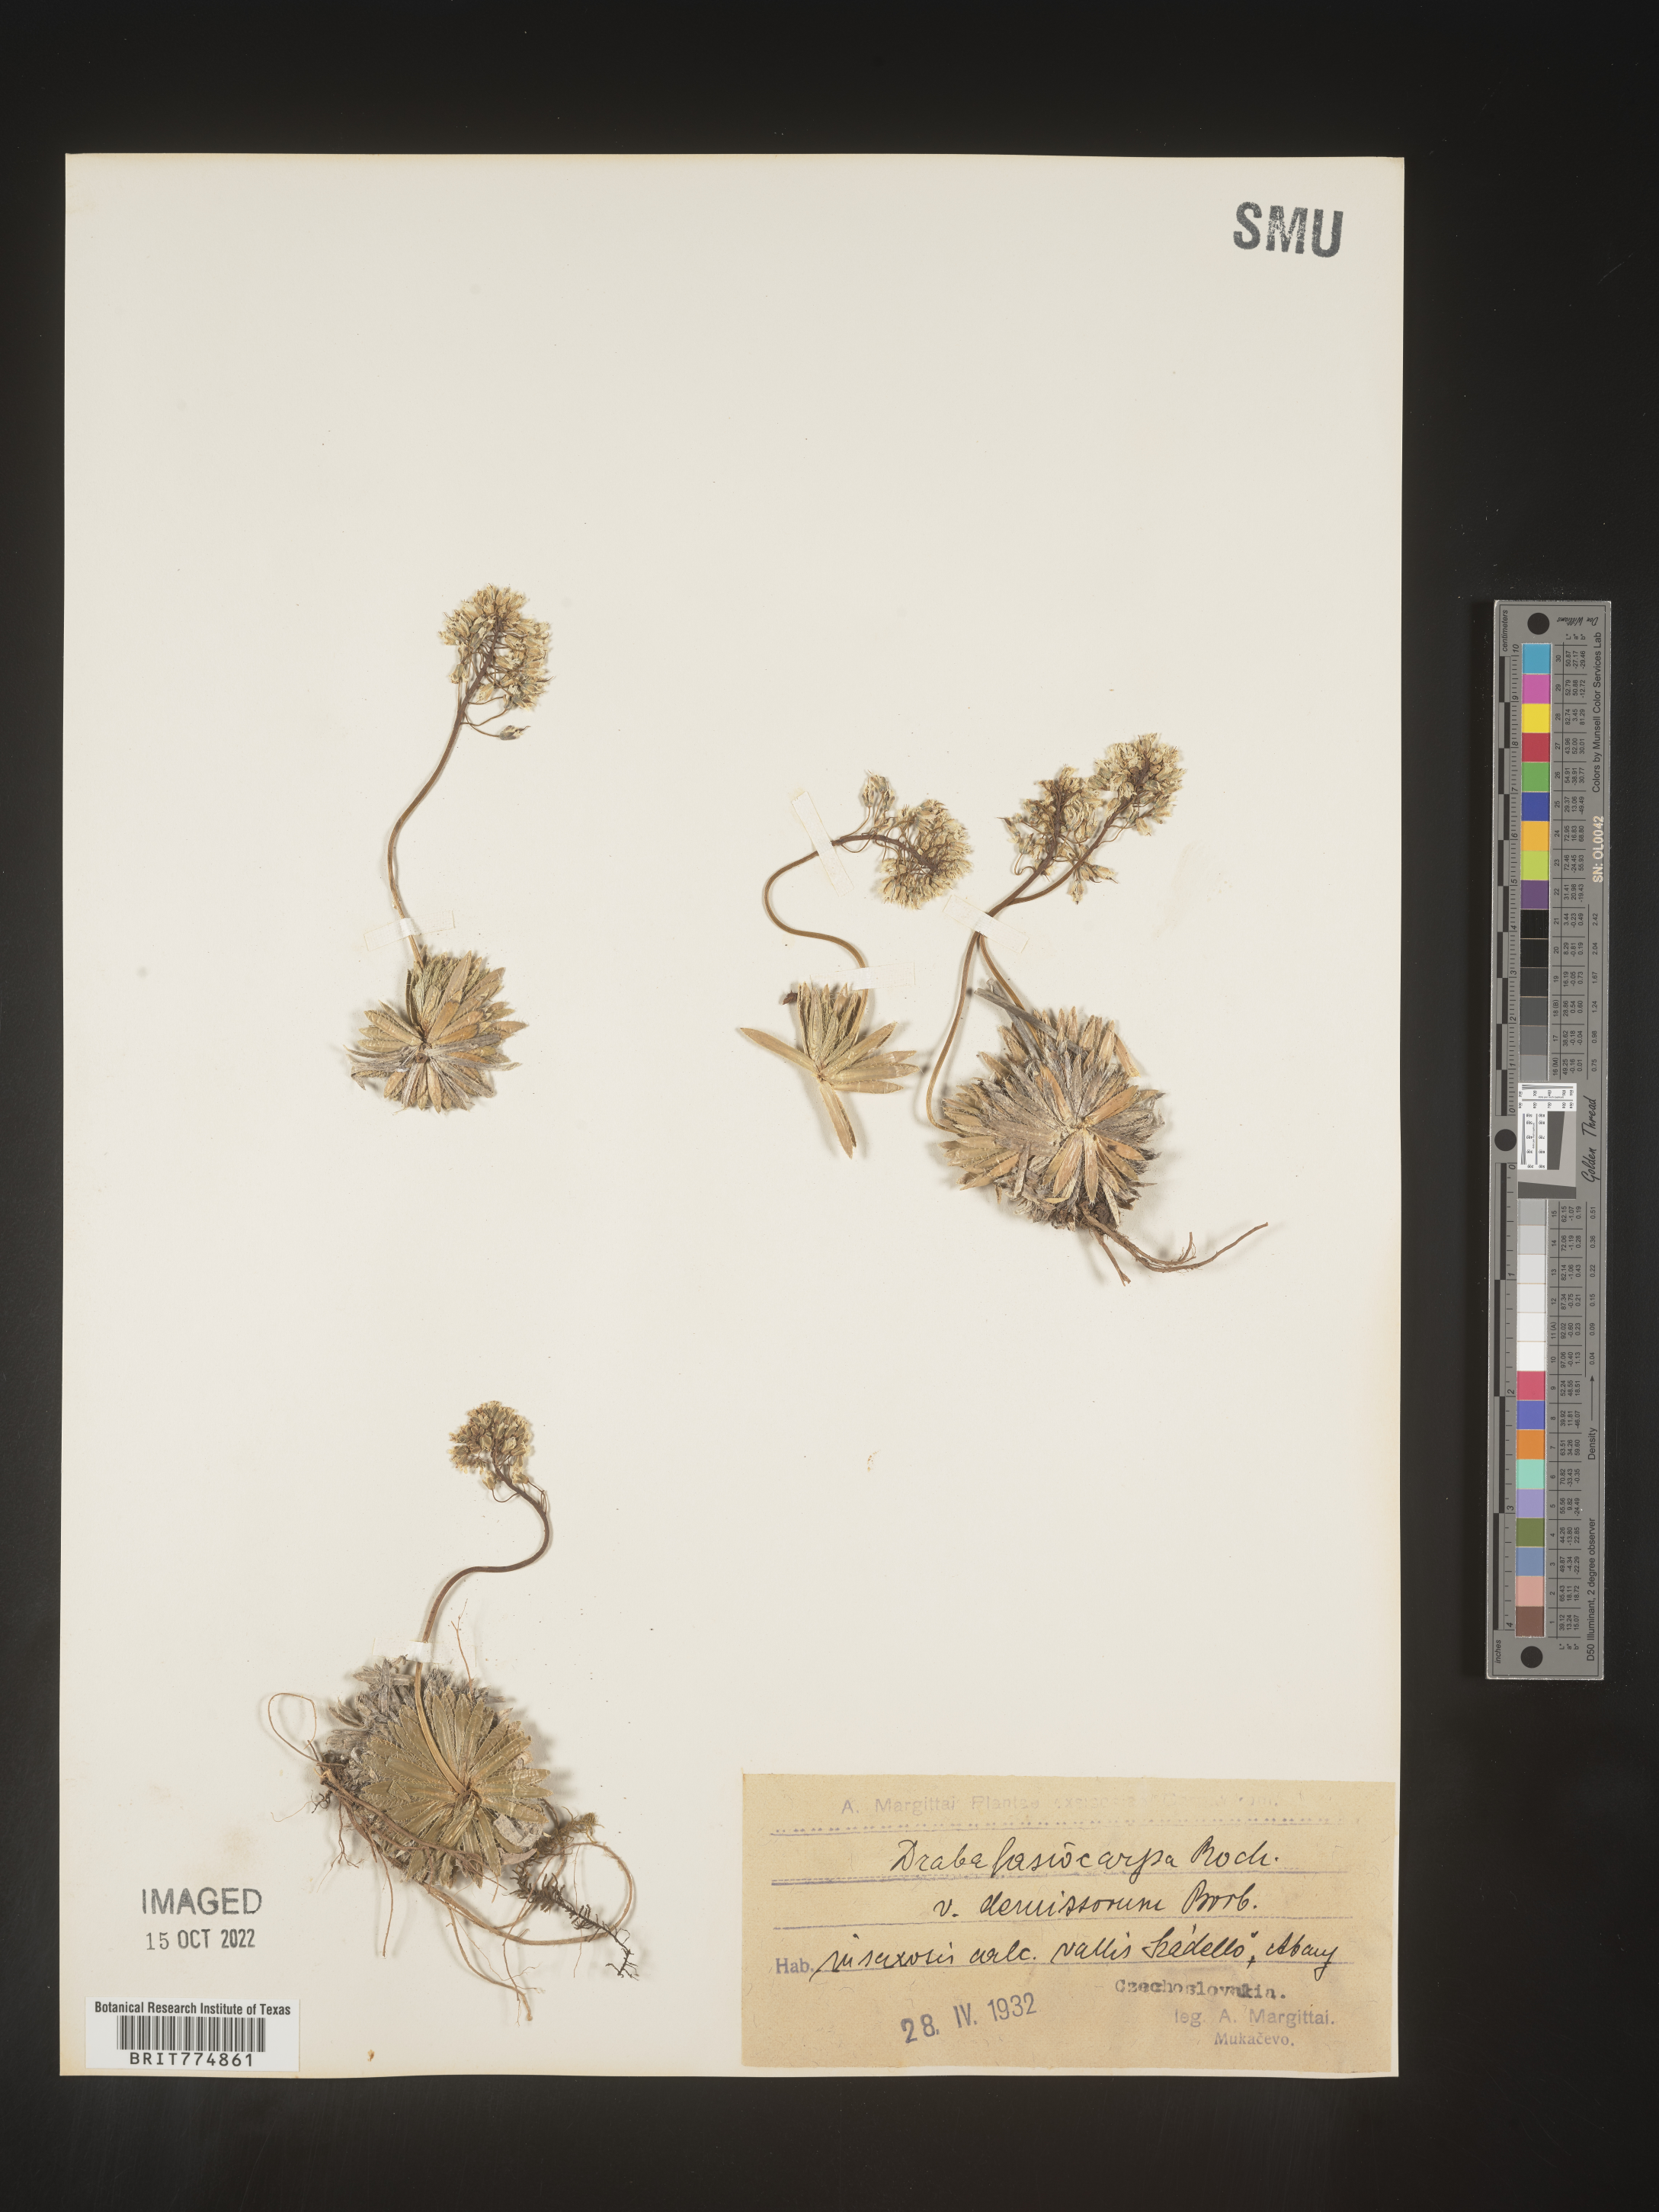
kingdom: Plantae
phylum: Tracheophyta
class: Magnoliopsida
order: Brassicales
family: Brassicaceae
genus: Draba
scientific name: Draba
